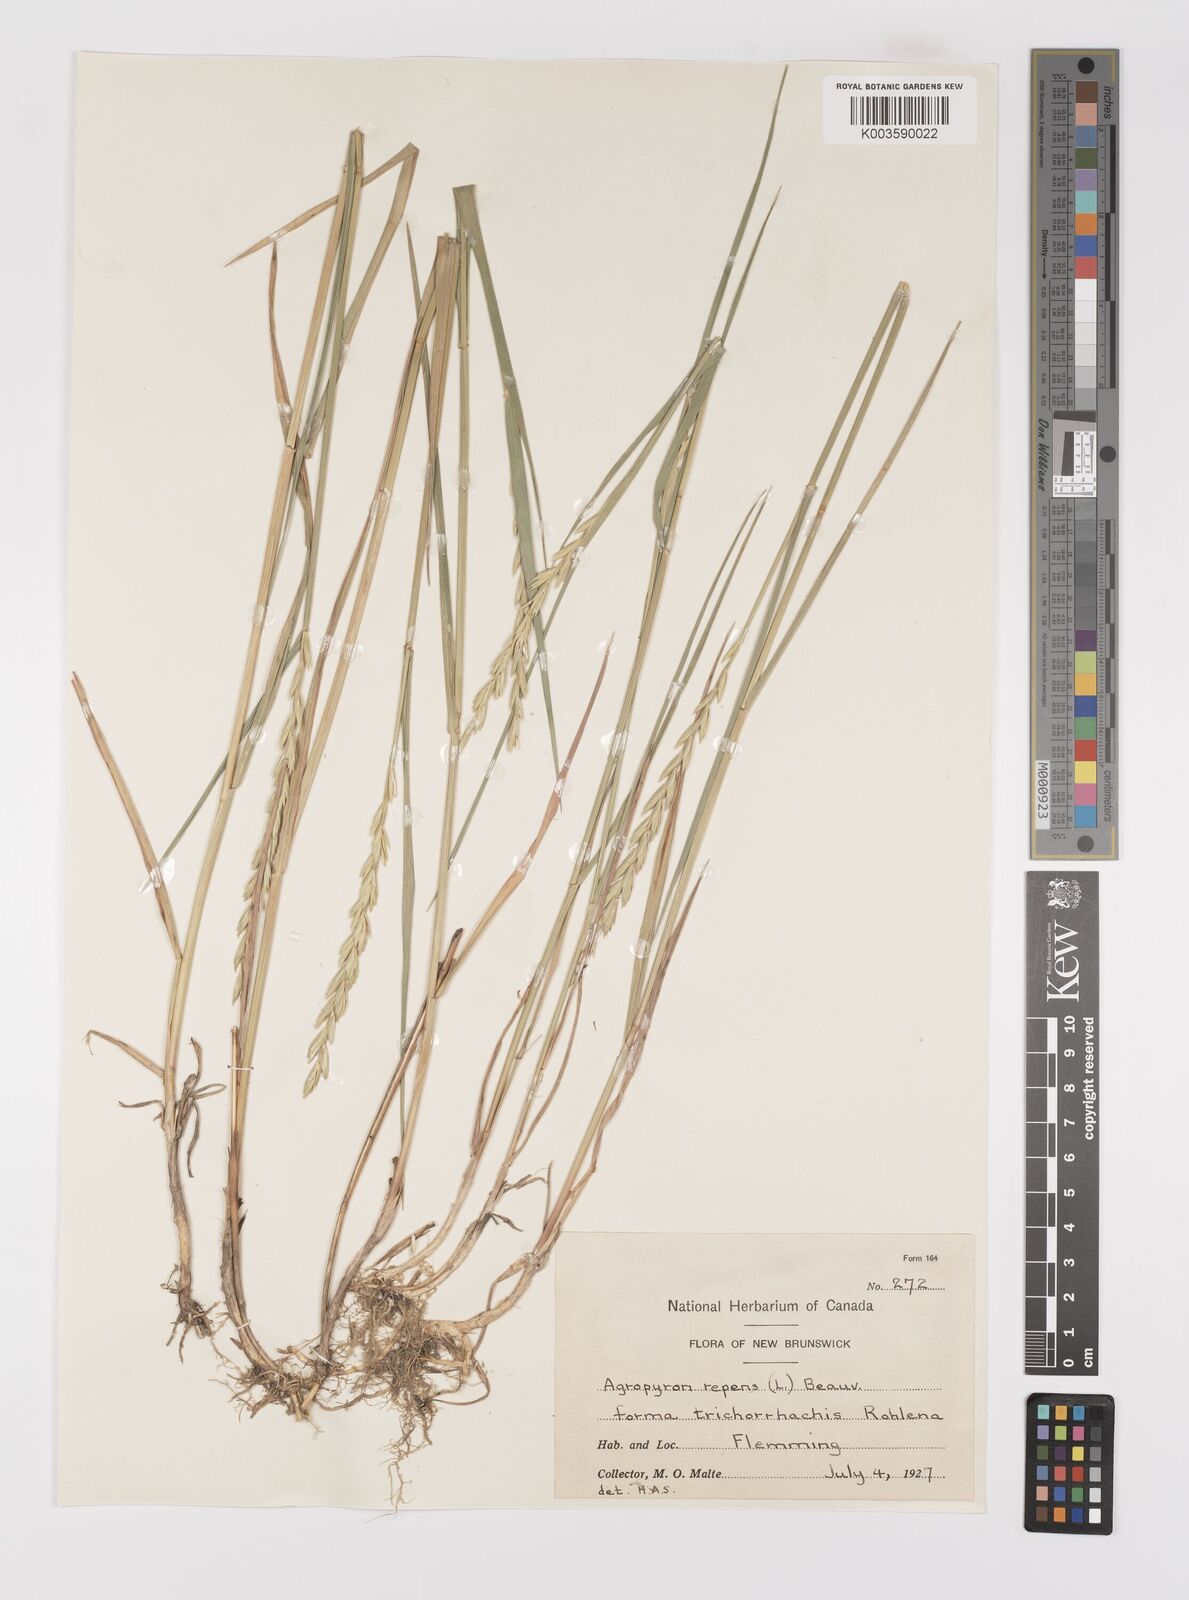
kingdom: Plantae
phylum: Tracheophyta
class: Liliopsida
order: Poales
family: Poaceae
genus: Elymus
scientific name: Elymus repens
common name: Quackgrass
